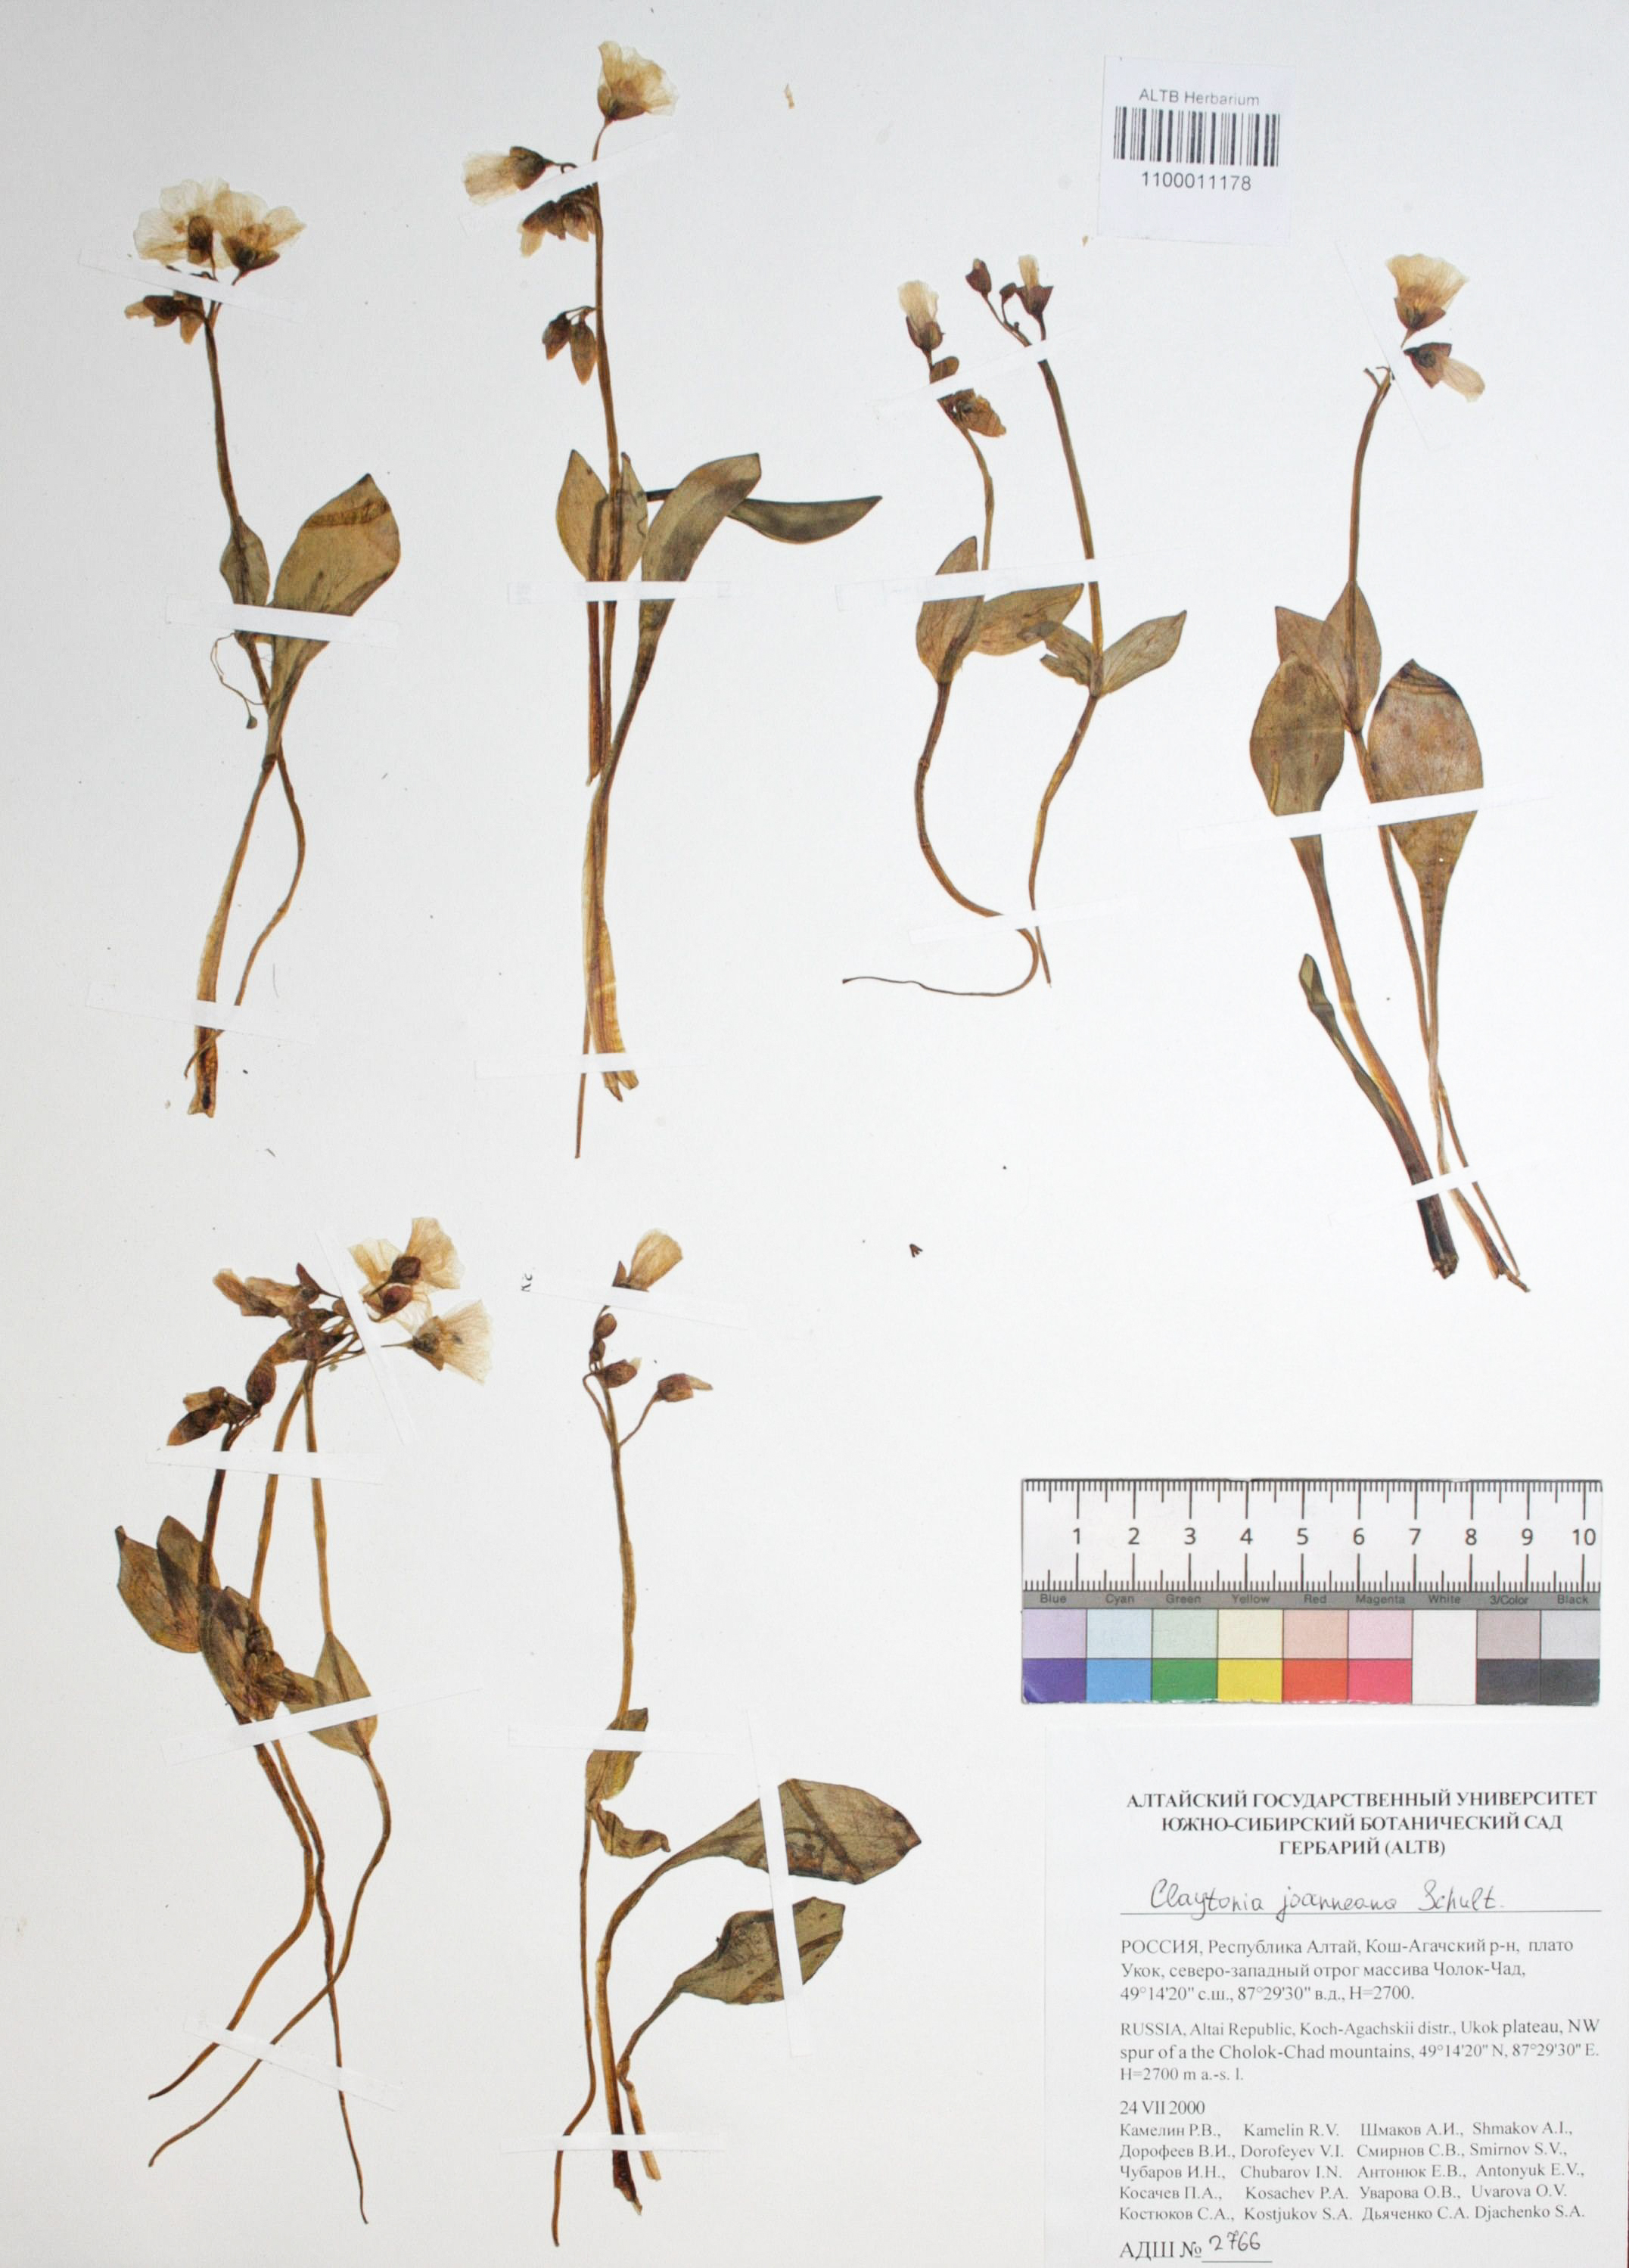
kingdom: Plantae
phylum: Tracheophyta
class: Magnoliopsida
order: Caryophyllales
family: Montiaceae
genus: Claytonia
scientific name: Claytonia joanneana
